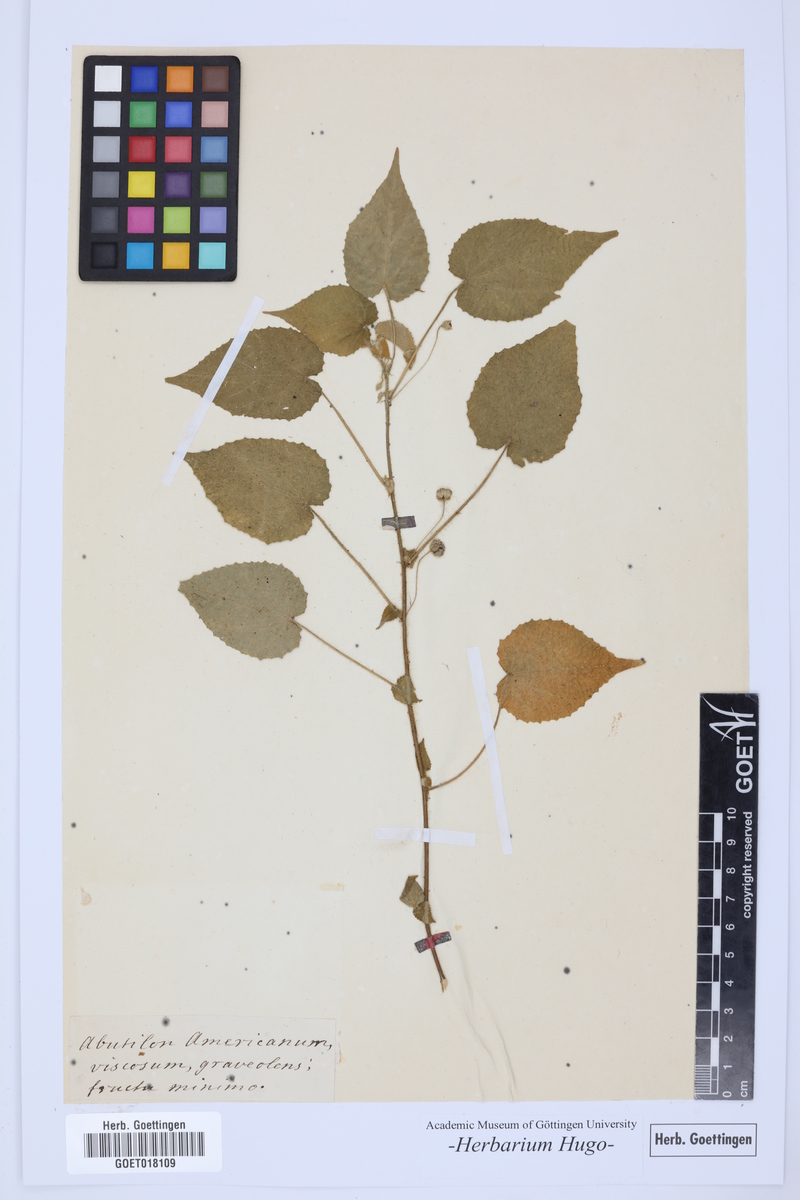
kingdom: Plantae
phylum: Tracheophyta
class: Magnoliopsida
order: Malvales
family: Malvaceae
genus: Abutilon
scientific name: Abutilon
